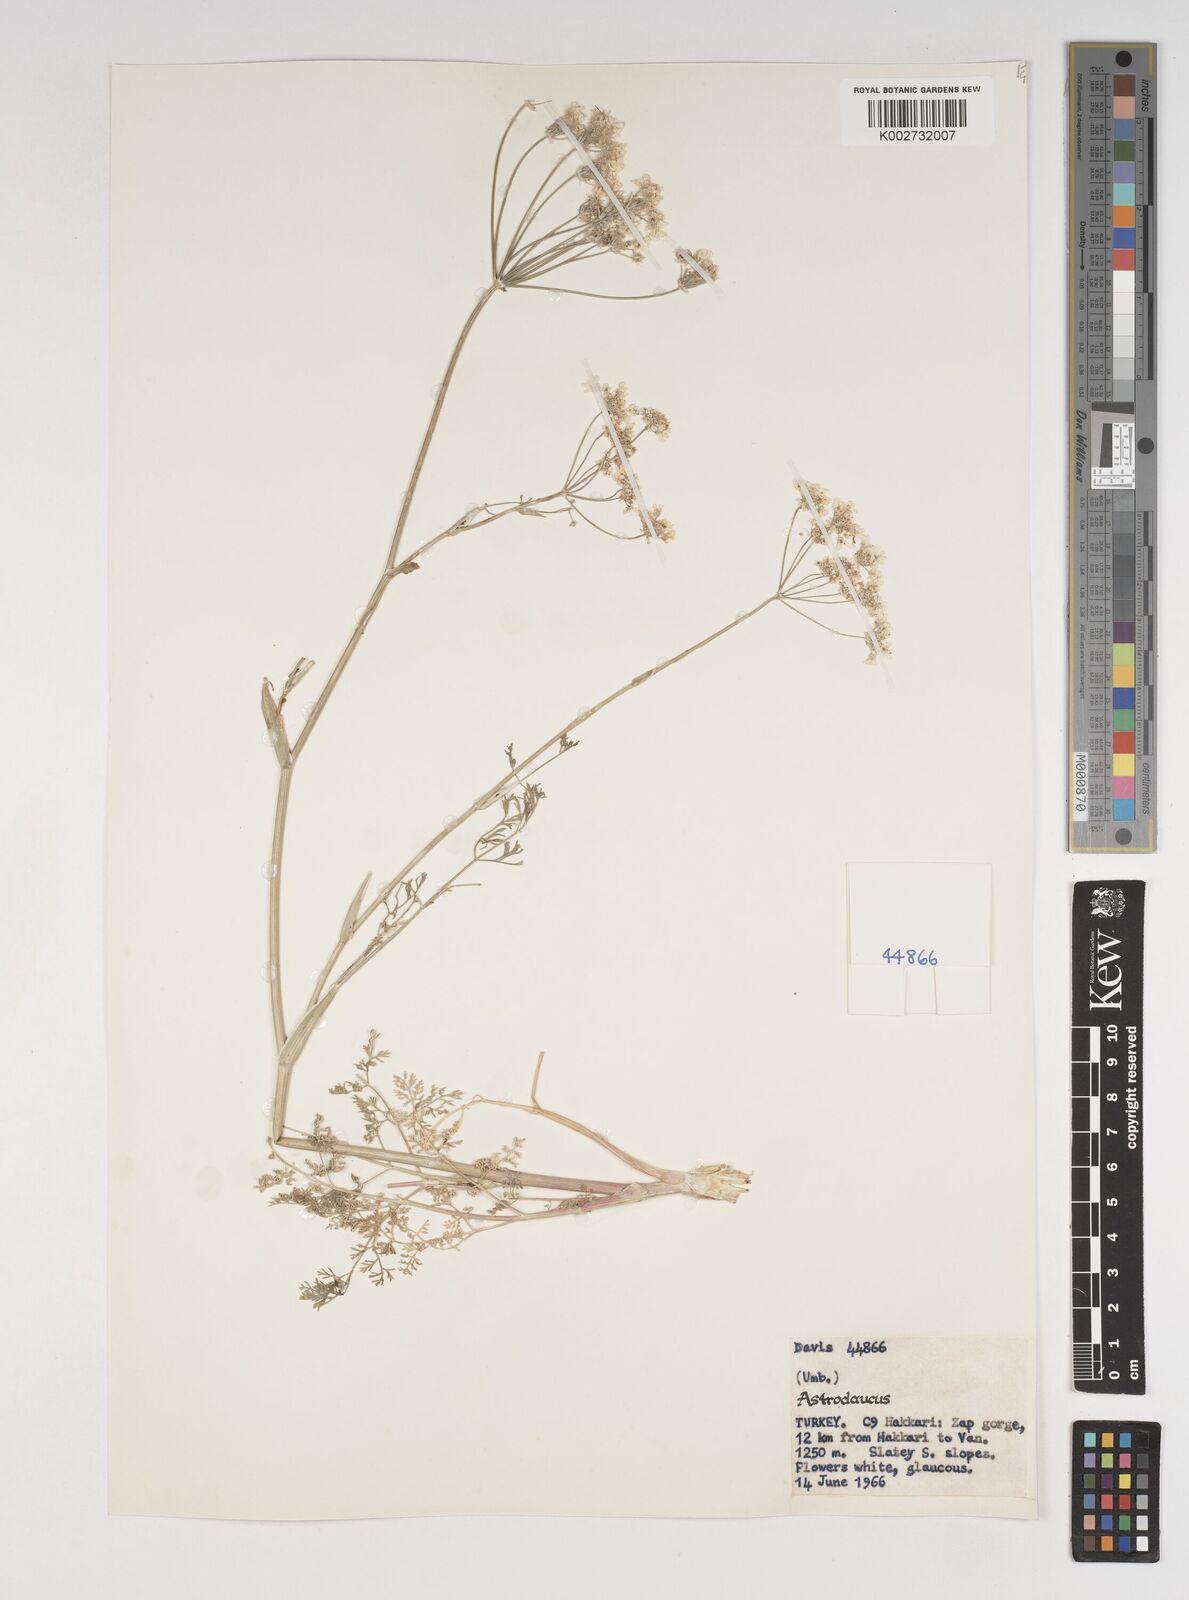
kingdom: Plantae
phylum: Tracheophyta
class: Magnoliopsida
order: Apiales
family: Apiaceae
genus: Astrodaucus
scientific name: Astrodaucus
